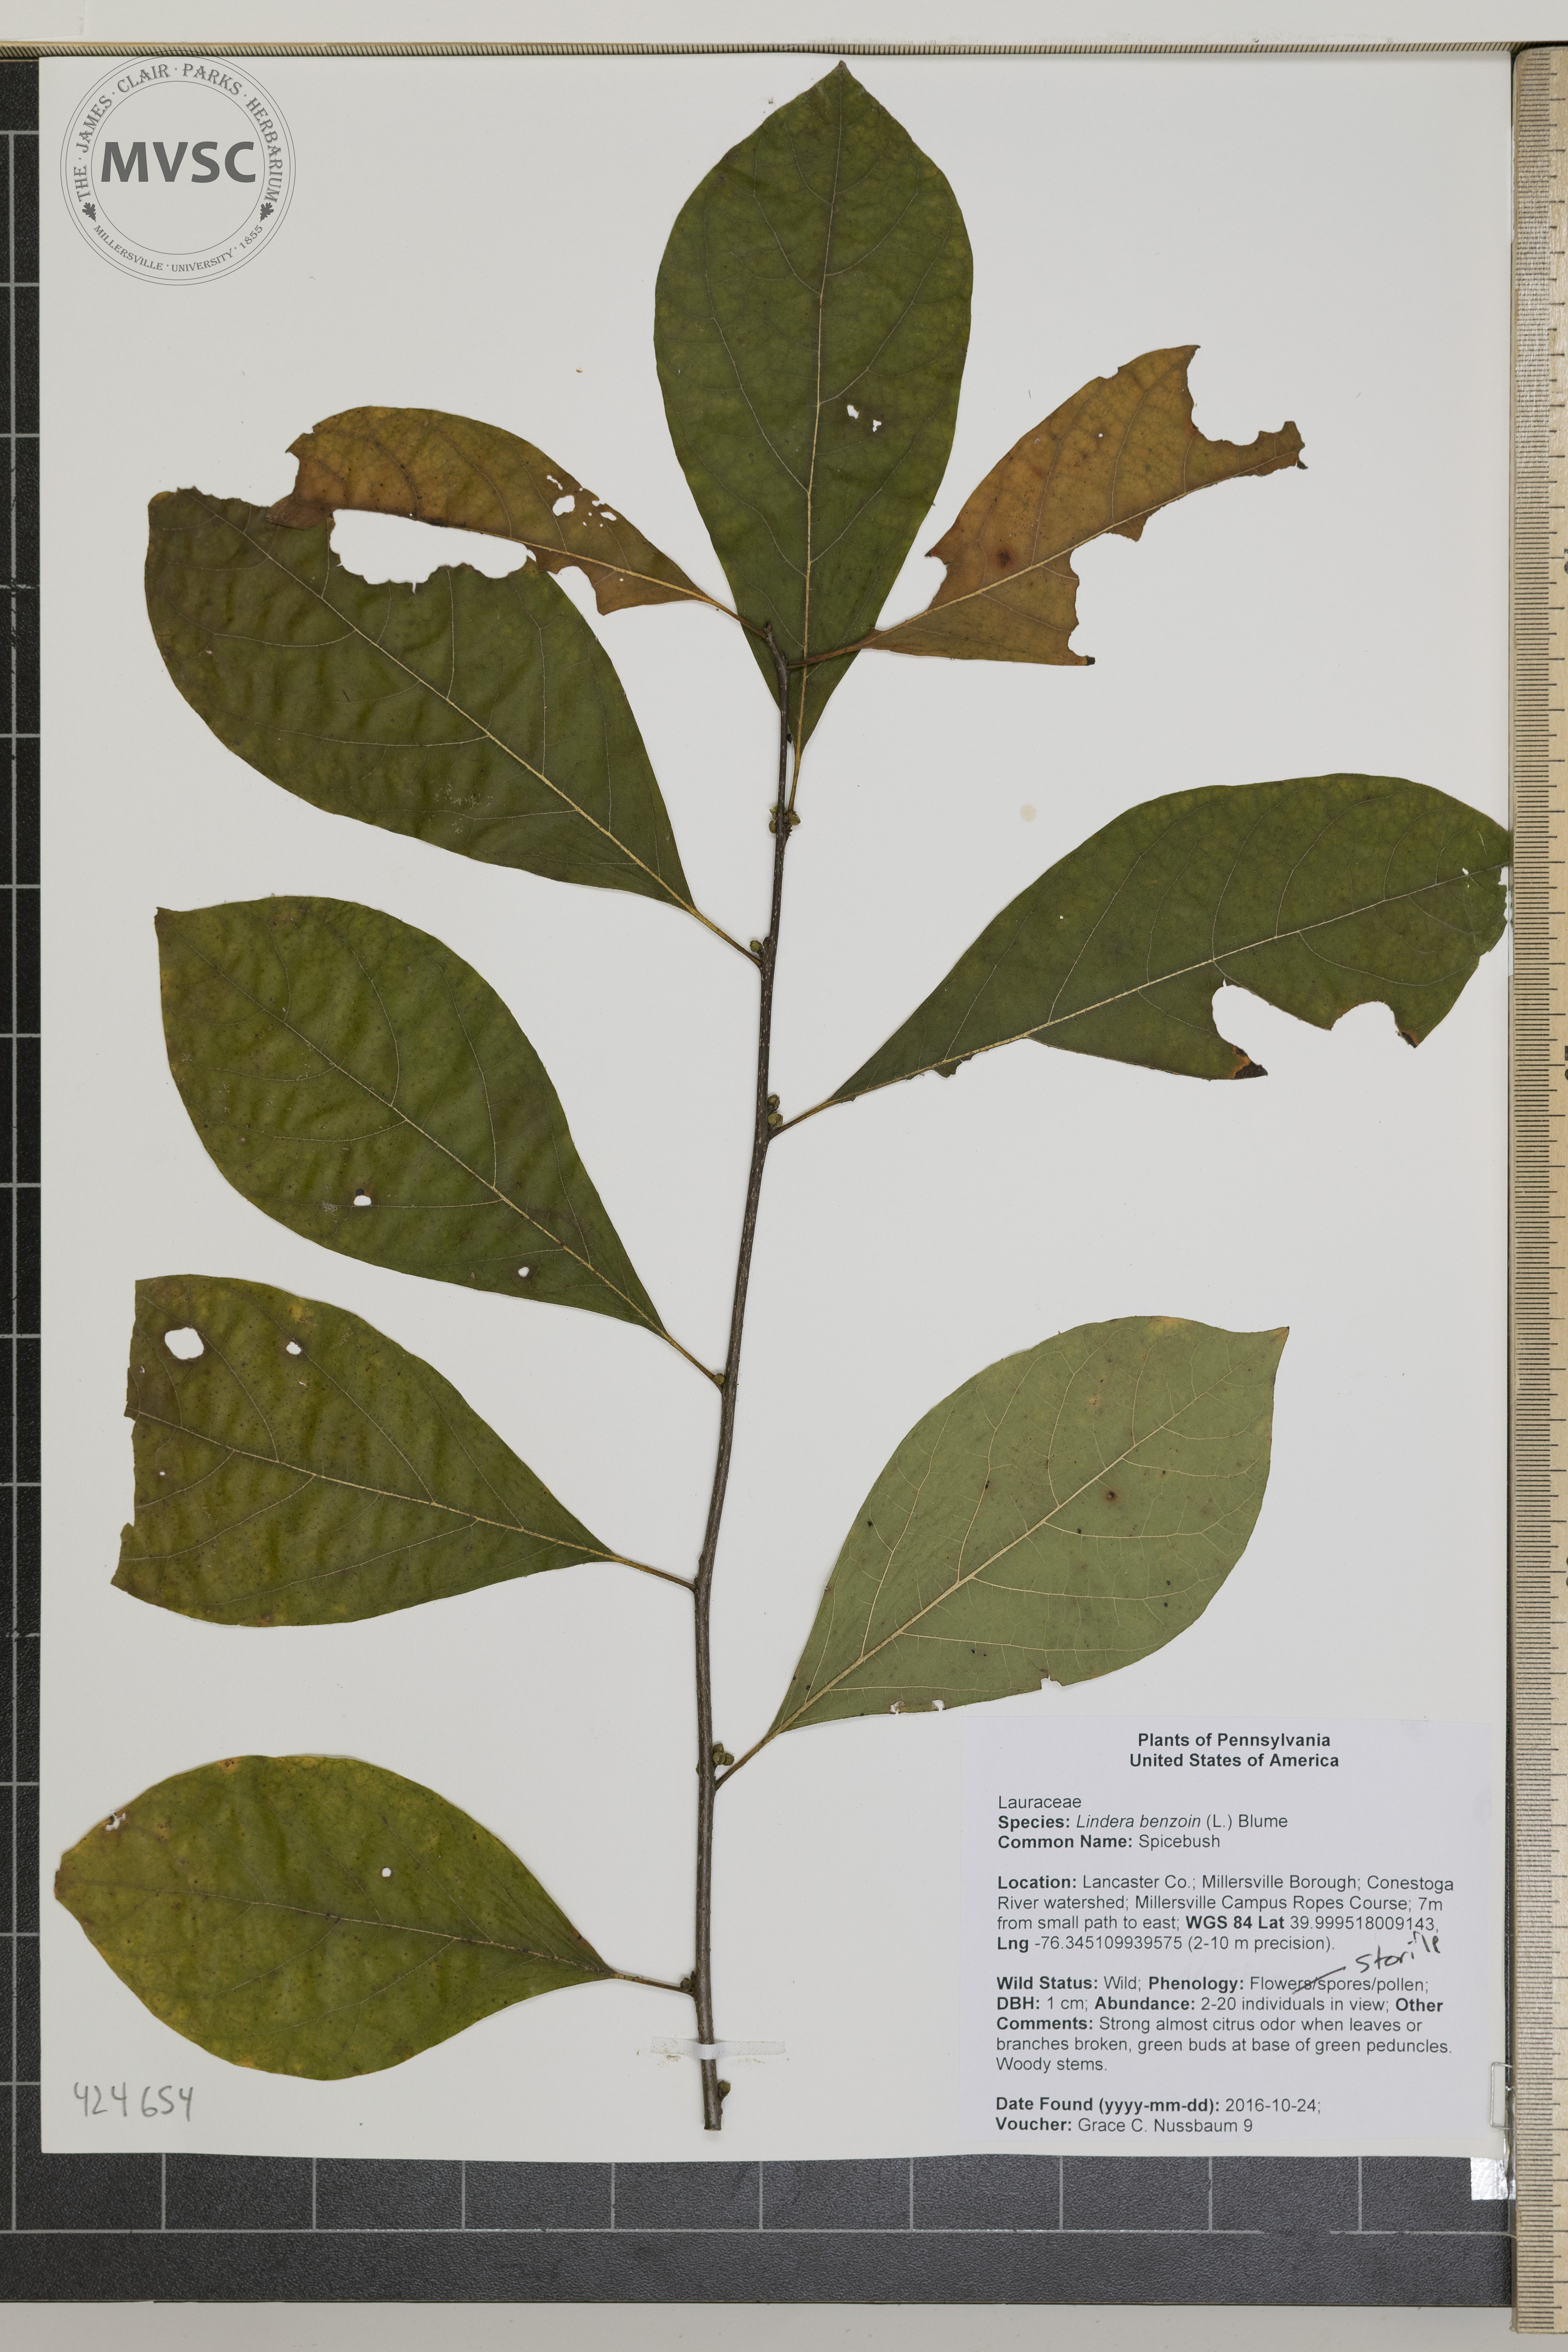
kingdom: Plantae
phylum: Tracheophyta
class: Magnoliopsida
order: Laurales
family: Lauraceae
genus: Lindera
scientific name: Lindera benzoin
